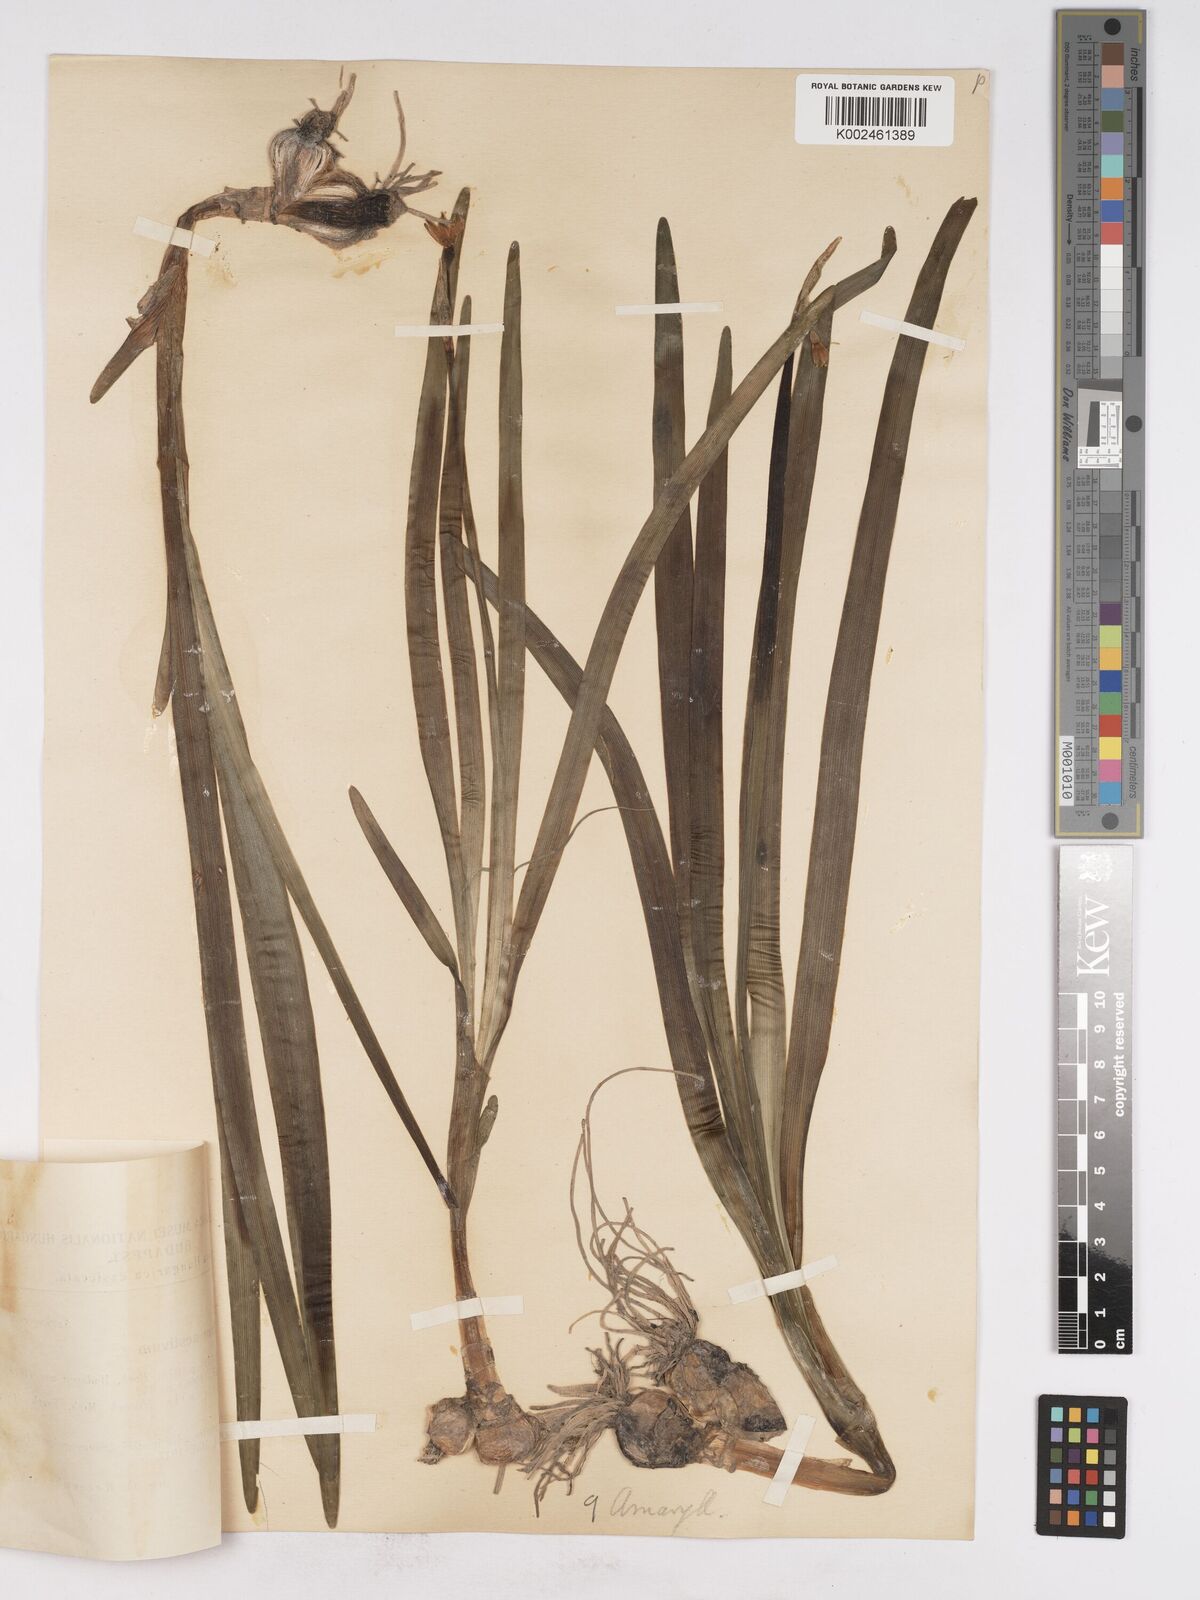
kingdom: Plantae
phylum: Tracheophyta
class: Liliopsida
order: Asparagales
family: Amaryllidaceae
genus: Leucojum
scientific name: Leucojum aestivum
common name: Summer snowflake
